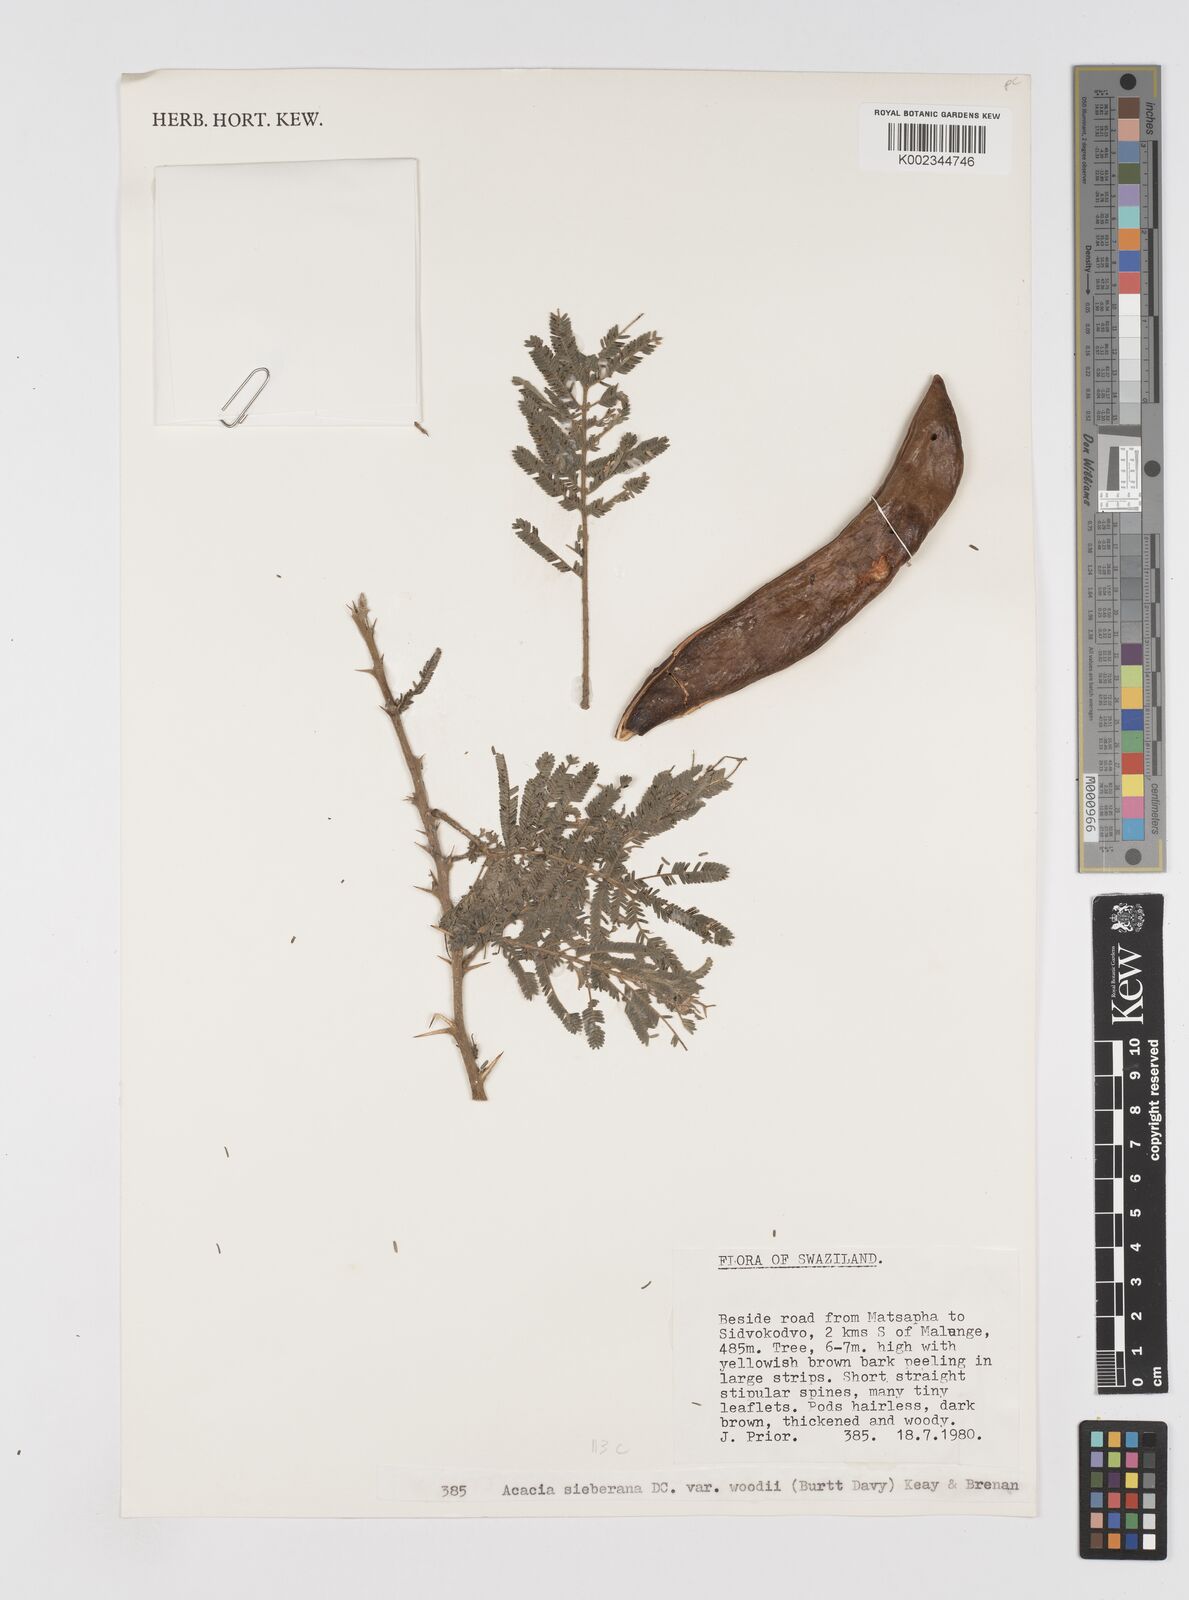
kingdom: Plantae
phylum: Tracheophyta
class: Magnoliopsida
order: Fabales
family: Fabaceae
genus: Vachellia
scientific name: Vachellia sieberiana
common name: Flat-topped thorn
